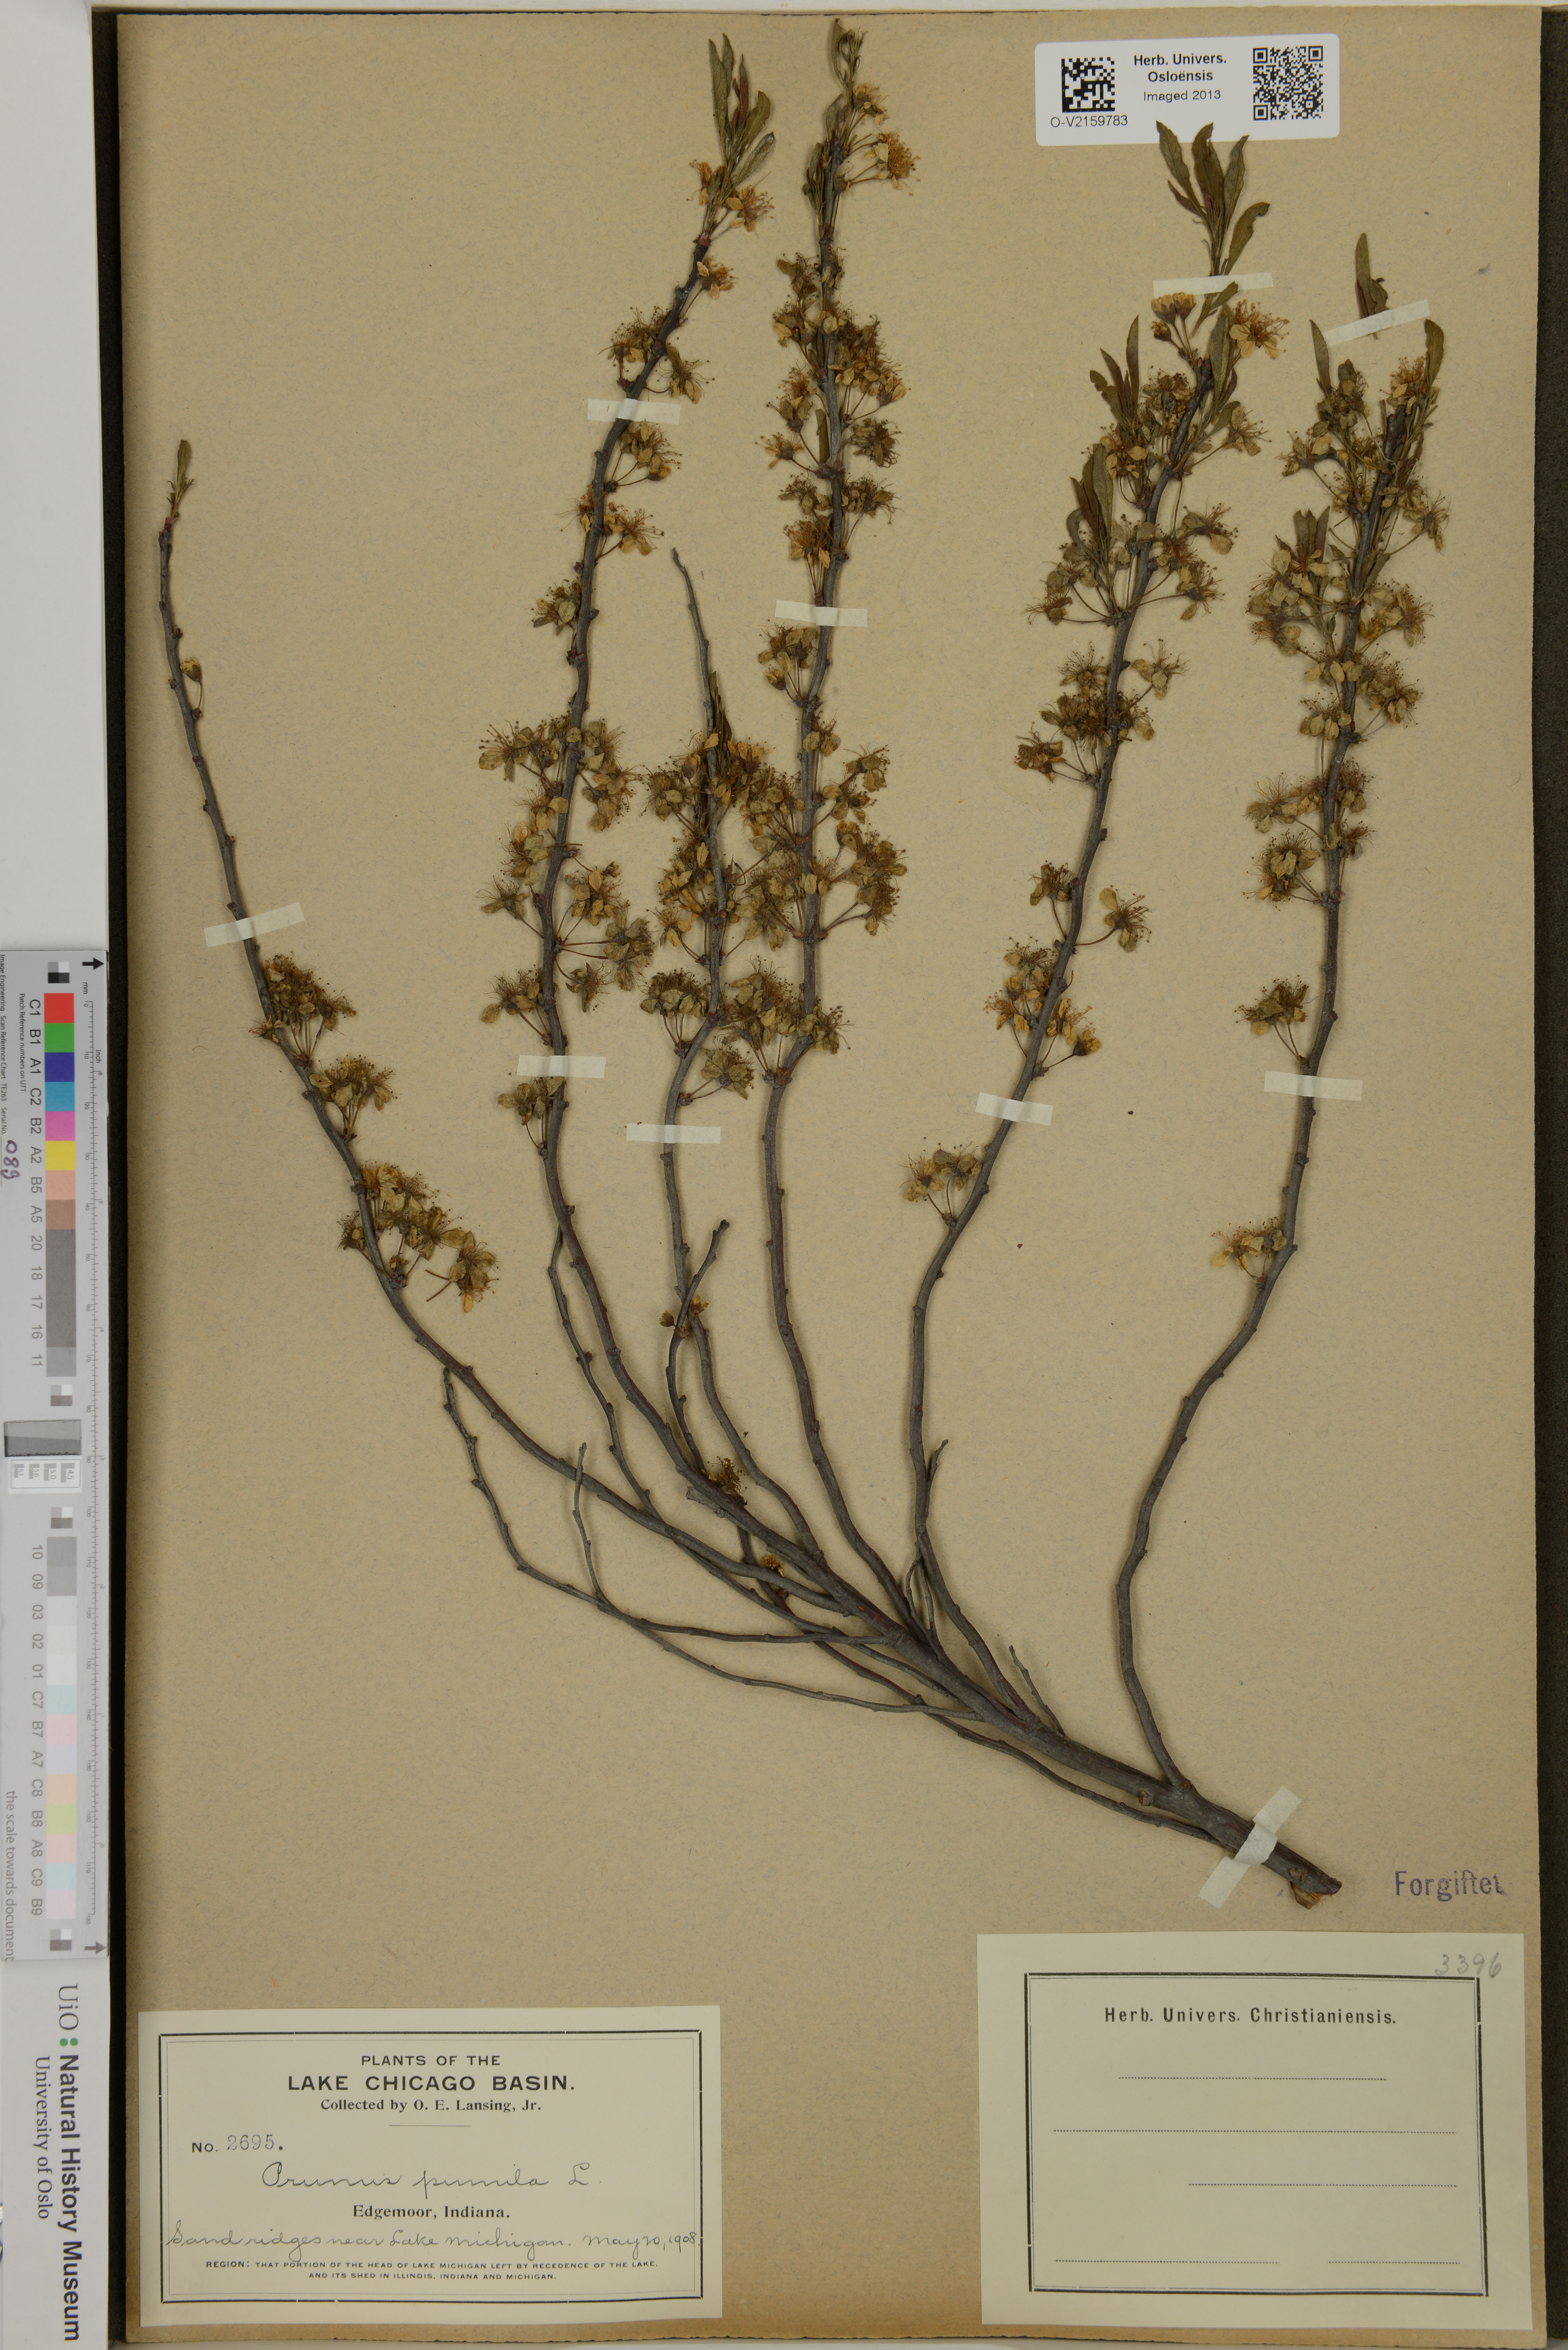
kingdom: Plantae
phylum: Tracheophyta
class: Magnoliopsida
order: Rosales
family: Rosaceae
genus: Prunus
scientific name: Prunus pumila
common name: Dwarf cherry
